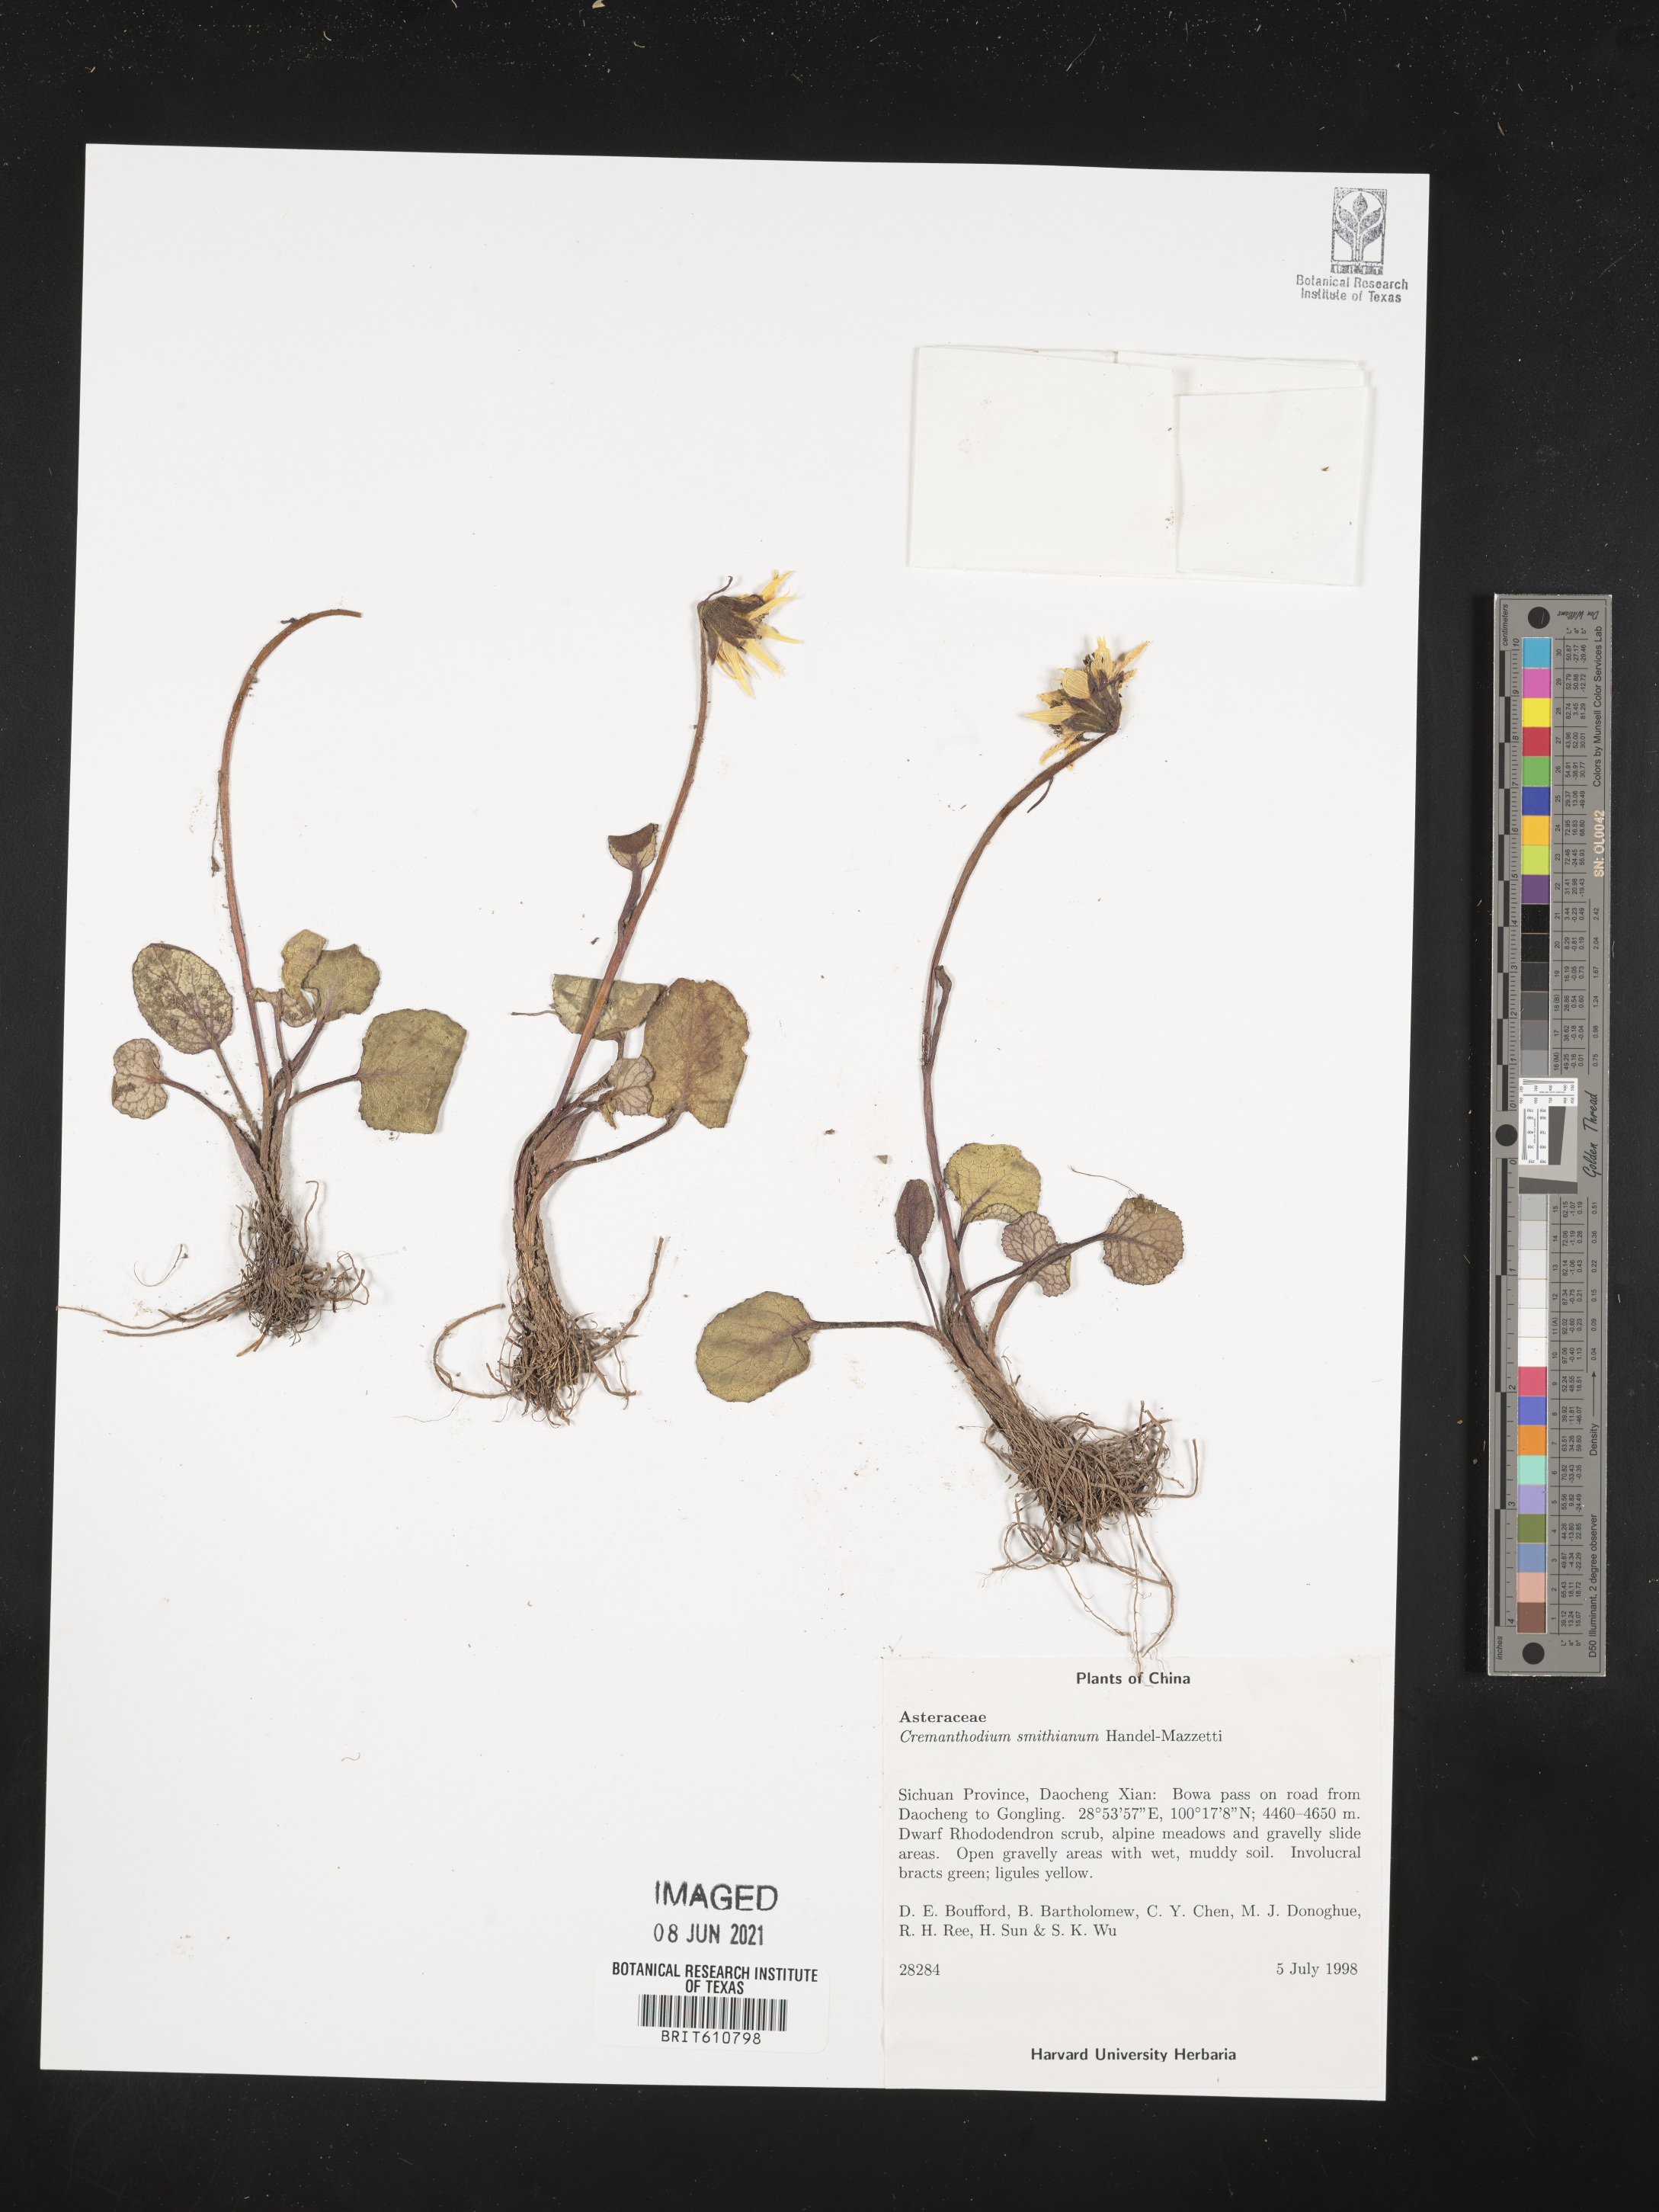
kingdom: Plantae
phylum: Tracheophyta
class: Magnoliopsida
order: Asterales
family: Asteraceae
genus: Cremanthodium
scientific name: Cremanthodium smithianum
